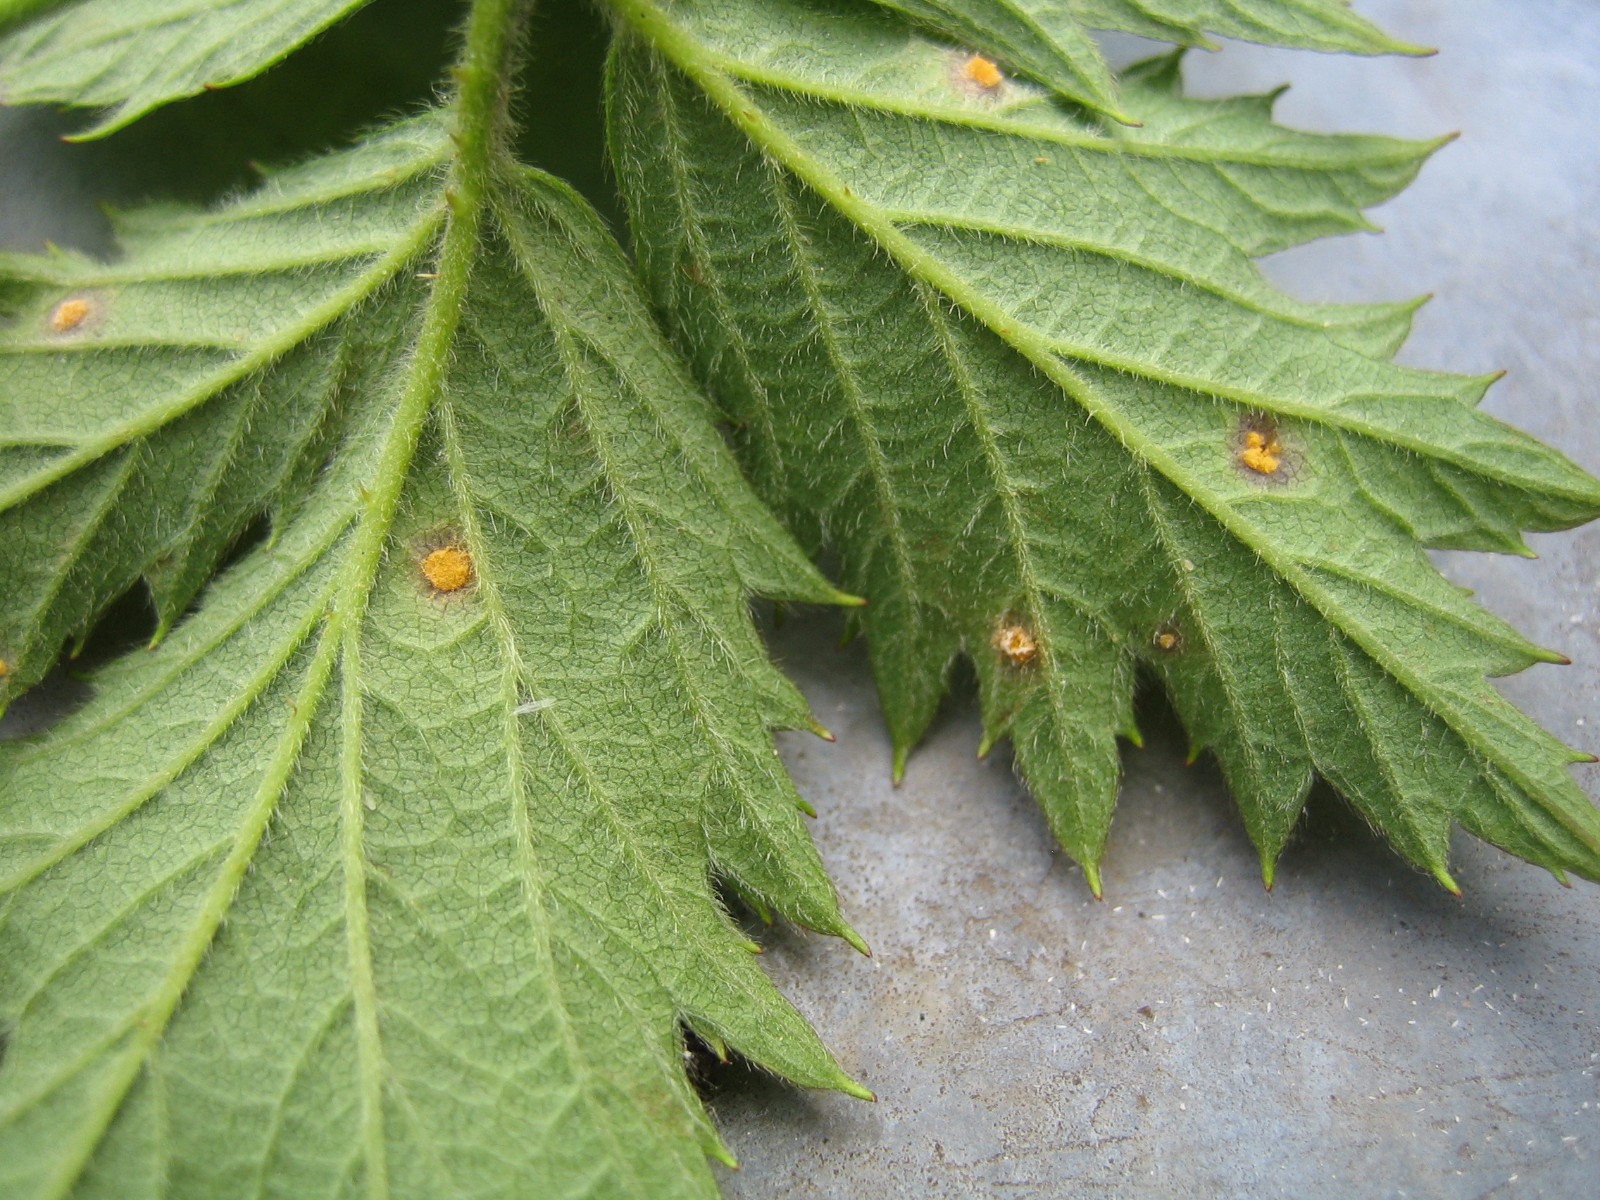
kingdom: Fungi
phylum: Basidiomycota
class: Pucciniomycetes
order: Pucciniales
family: Phragmidiaceae
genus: Phragmidium
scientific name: Phragmidium
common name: flercellerust
